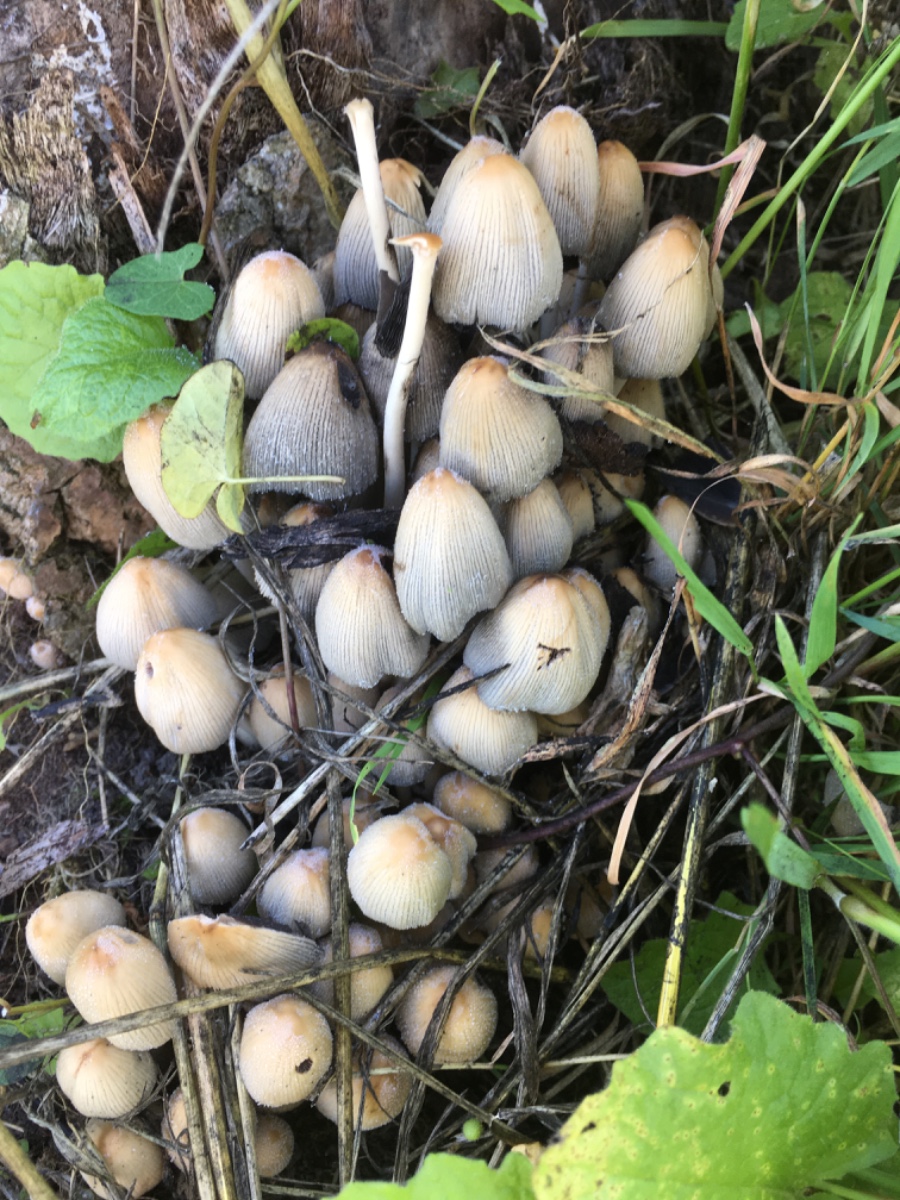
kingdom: Fungi
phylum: Basidiomycota
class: Agaricomycetes
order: Agaricales
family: Psathyrellaceae
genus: Coprinellus
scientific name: Coprinellus micaceus
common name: glimmer-blækhat
